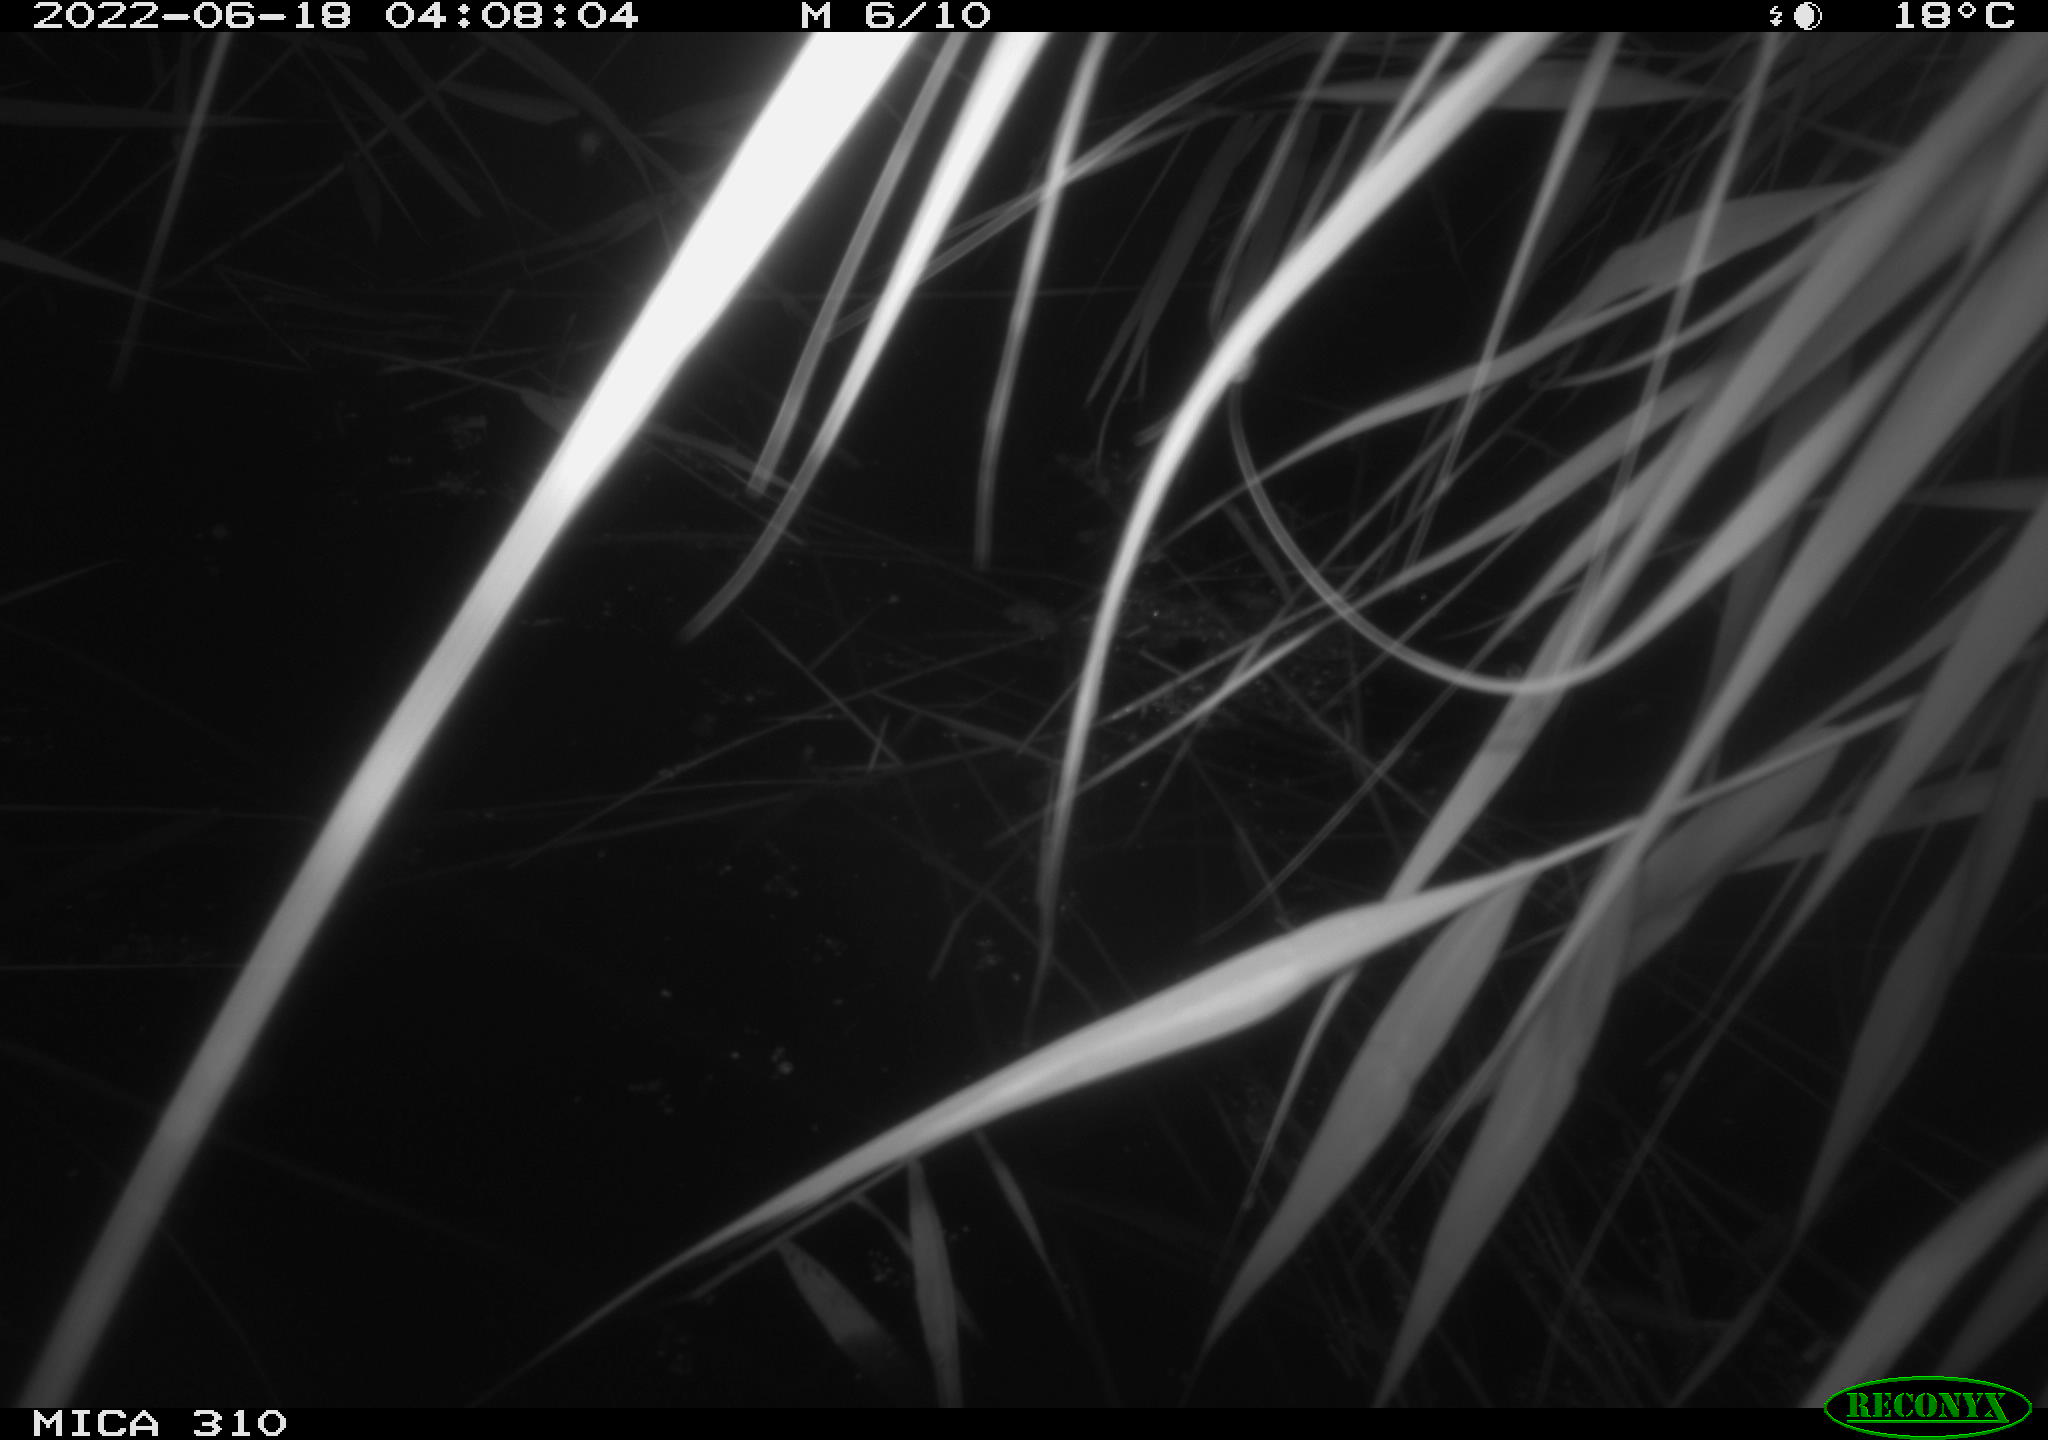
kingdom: Animalia
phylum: Chordata
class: Aves
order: Anseriformes
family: Anatidae
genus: Anas
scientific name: Anas platyrhynchos
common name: Mallard
